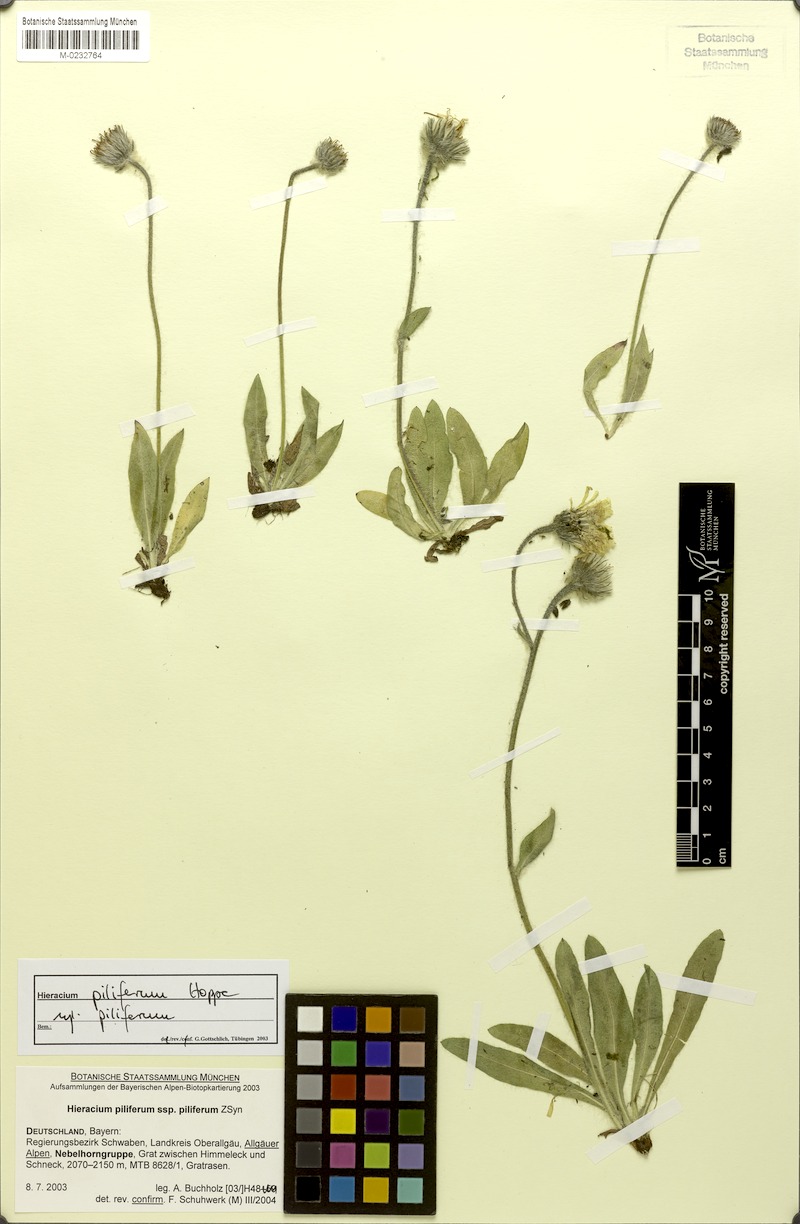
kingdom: Plantae
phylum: Tracheophyta
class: Magnoliopsida
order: Asterales
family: Asteraceae
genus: Hieracium
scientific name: Hieracium piliferum
